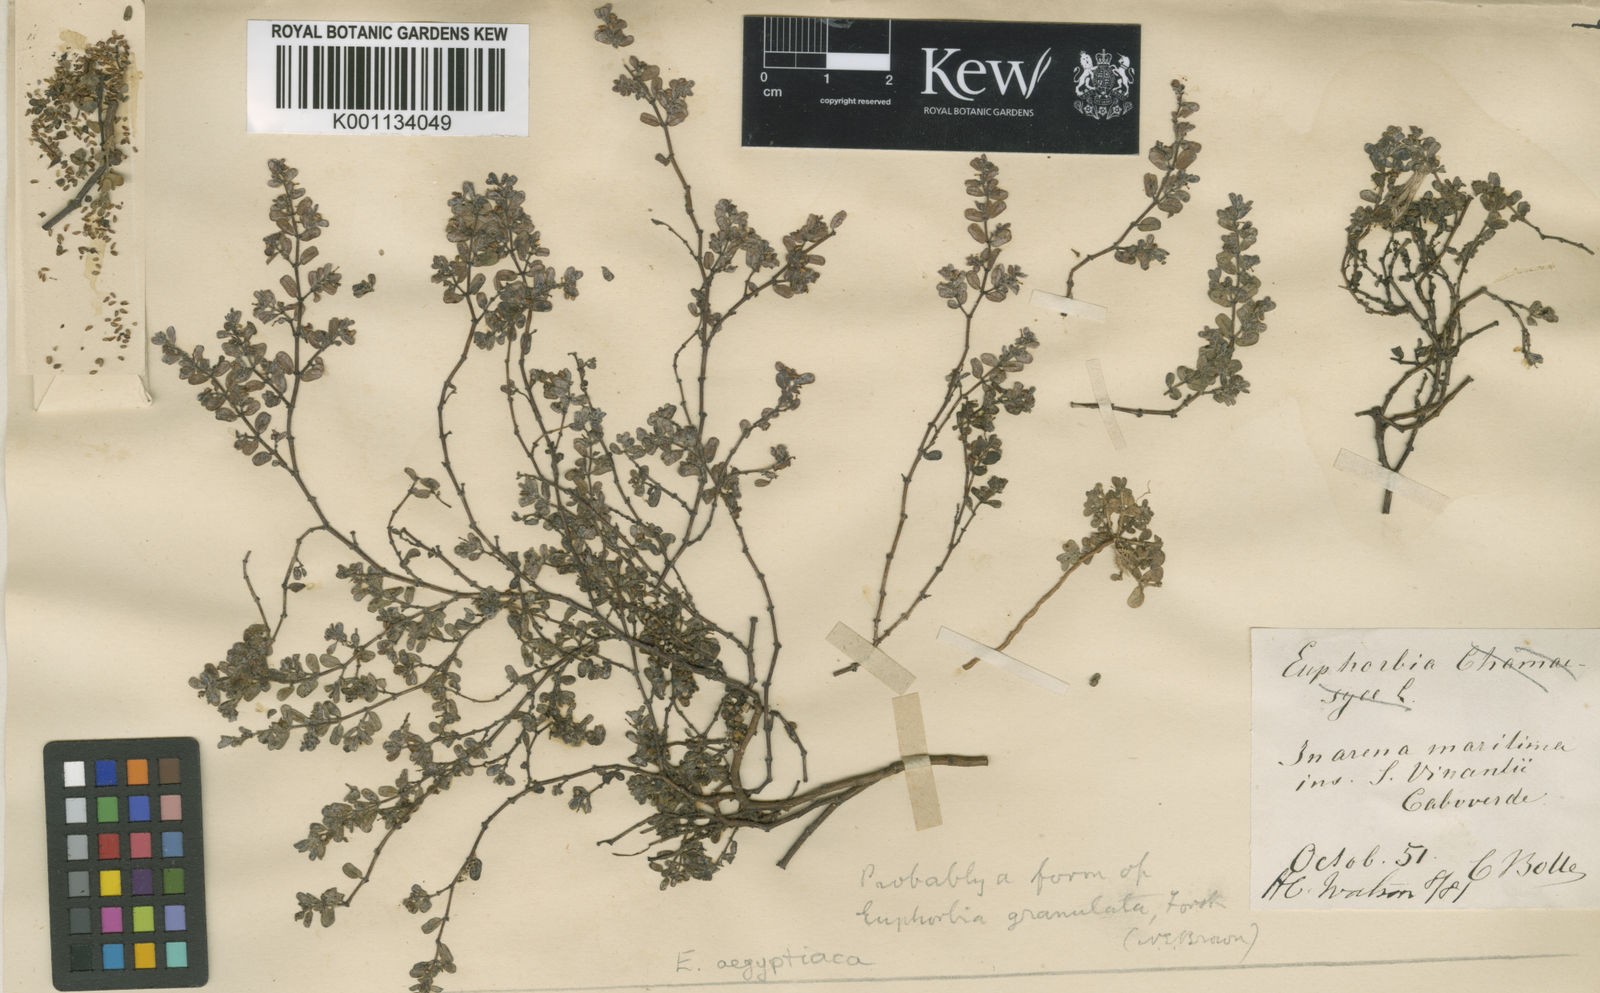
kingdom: Plantae
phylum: Tracheophyta
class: Magnoliopsida
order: Malpighiales
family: Euphorbiaceae
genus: Euphorbia
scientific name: Euphorbia
